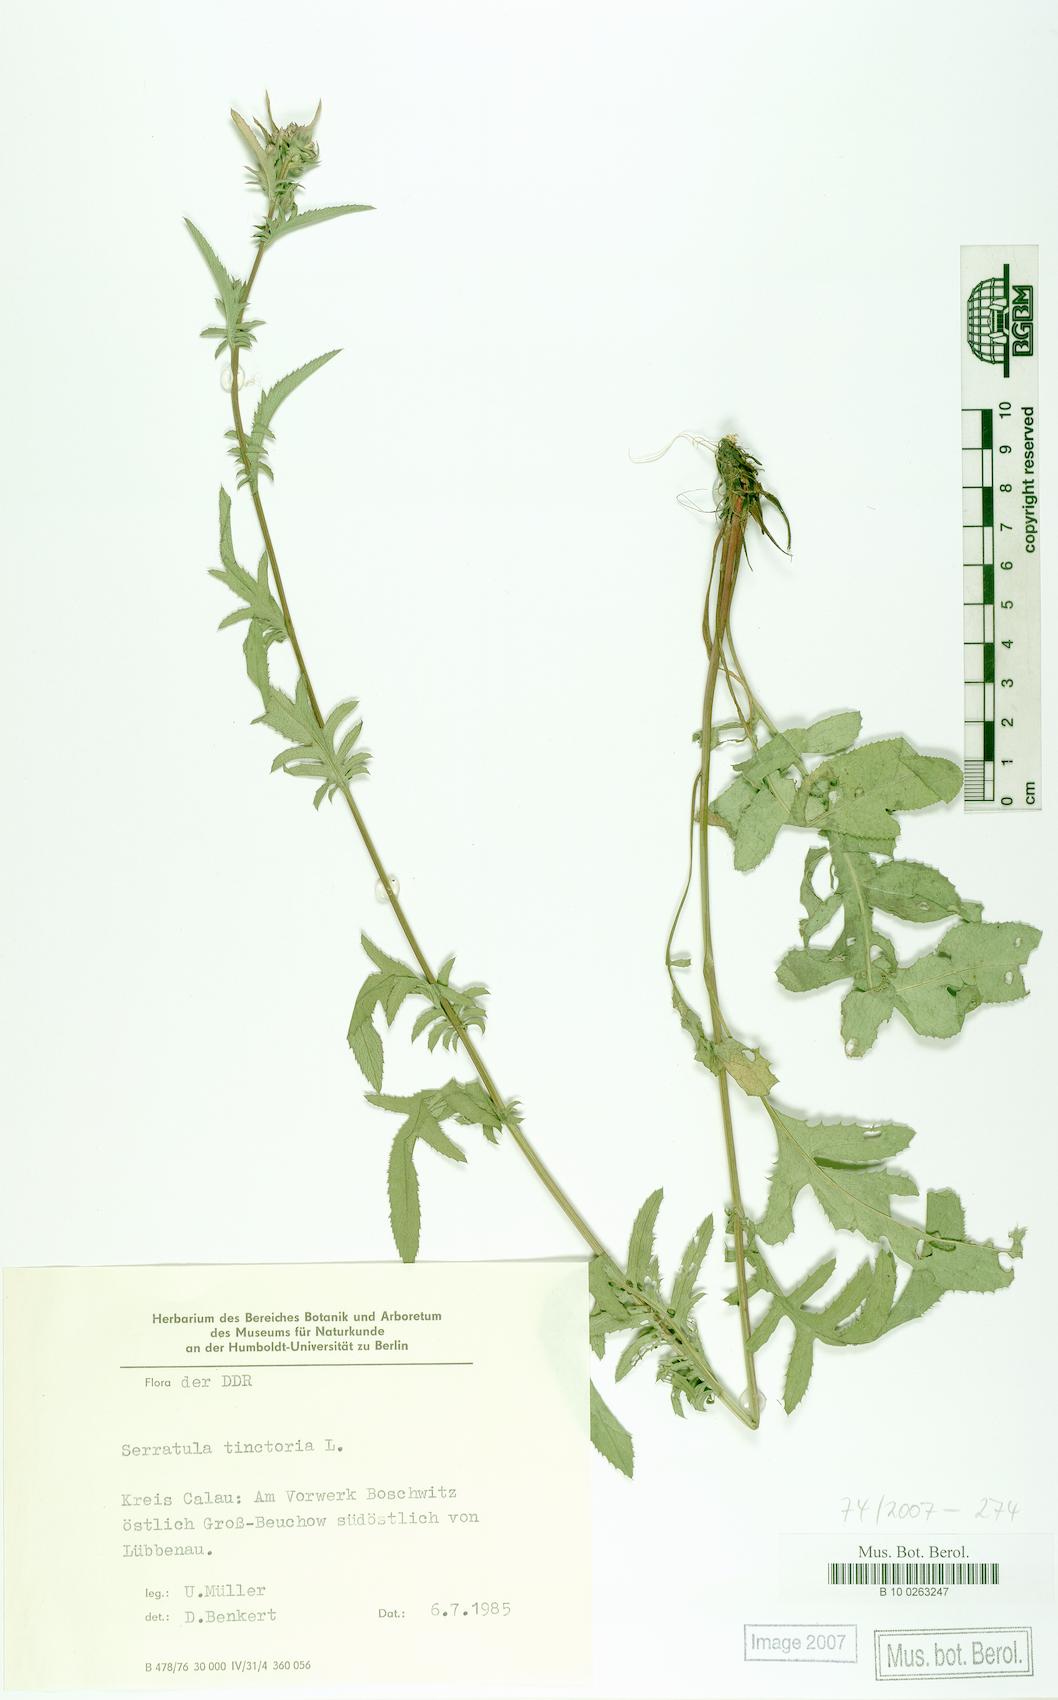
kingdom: Plantae
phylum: Tracheophyta
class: Magnoliopsida
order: Asterales
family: Asteraceae
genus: Serratula
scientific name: Serratula tinctoria
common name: Saw-wort
